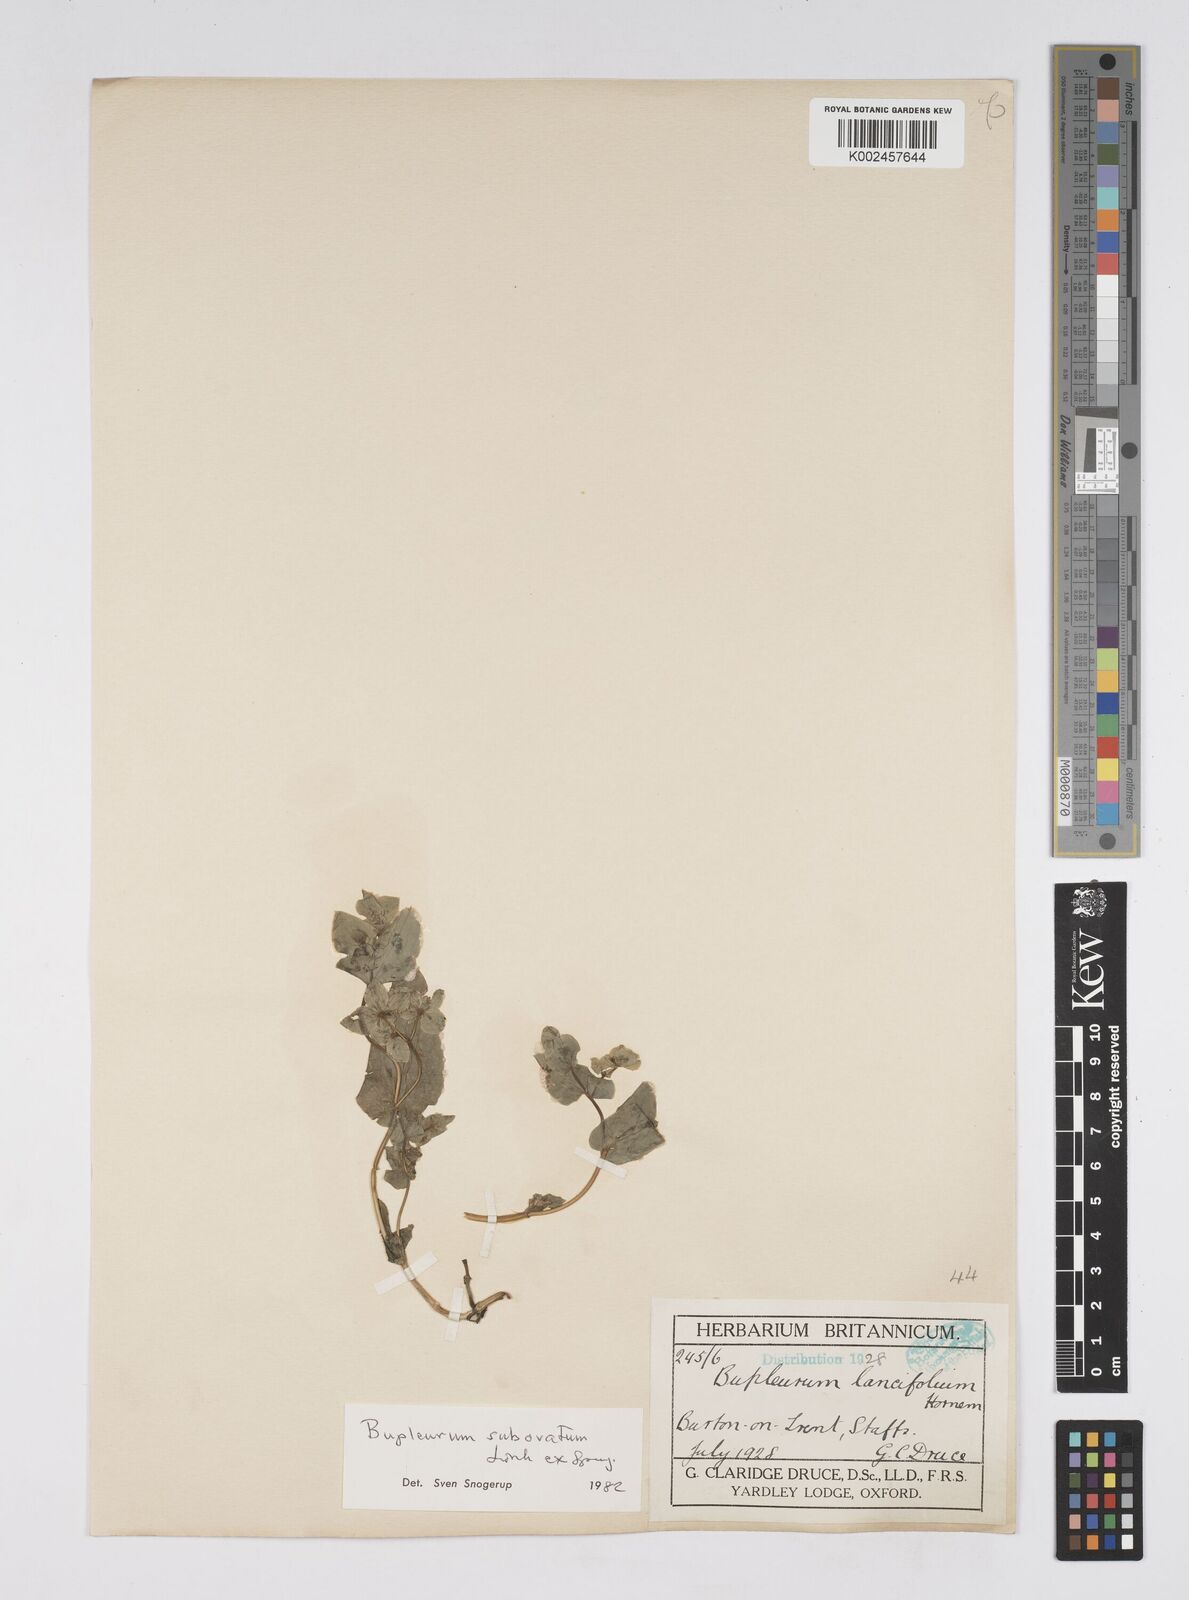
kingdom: Plantae
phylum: Tracheophyta
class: Magnoliopsida
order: Apiales
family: Apiaceae
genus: Bupleurum
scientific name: Bupleurum subovatum
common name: False thorow-wax
